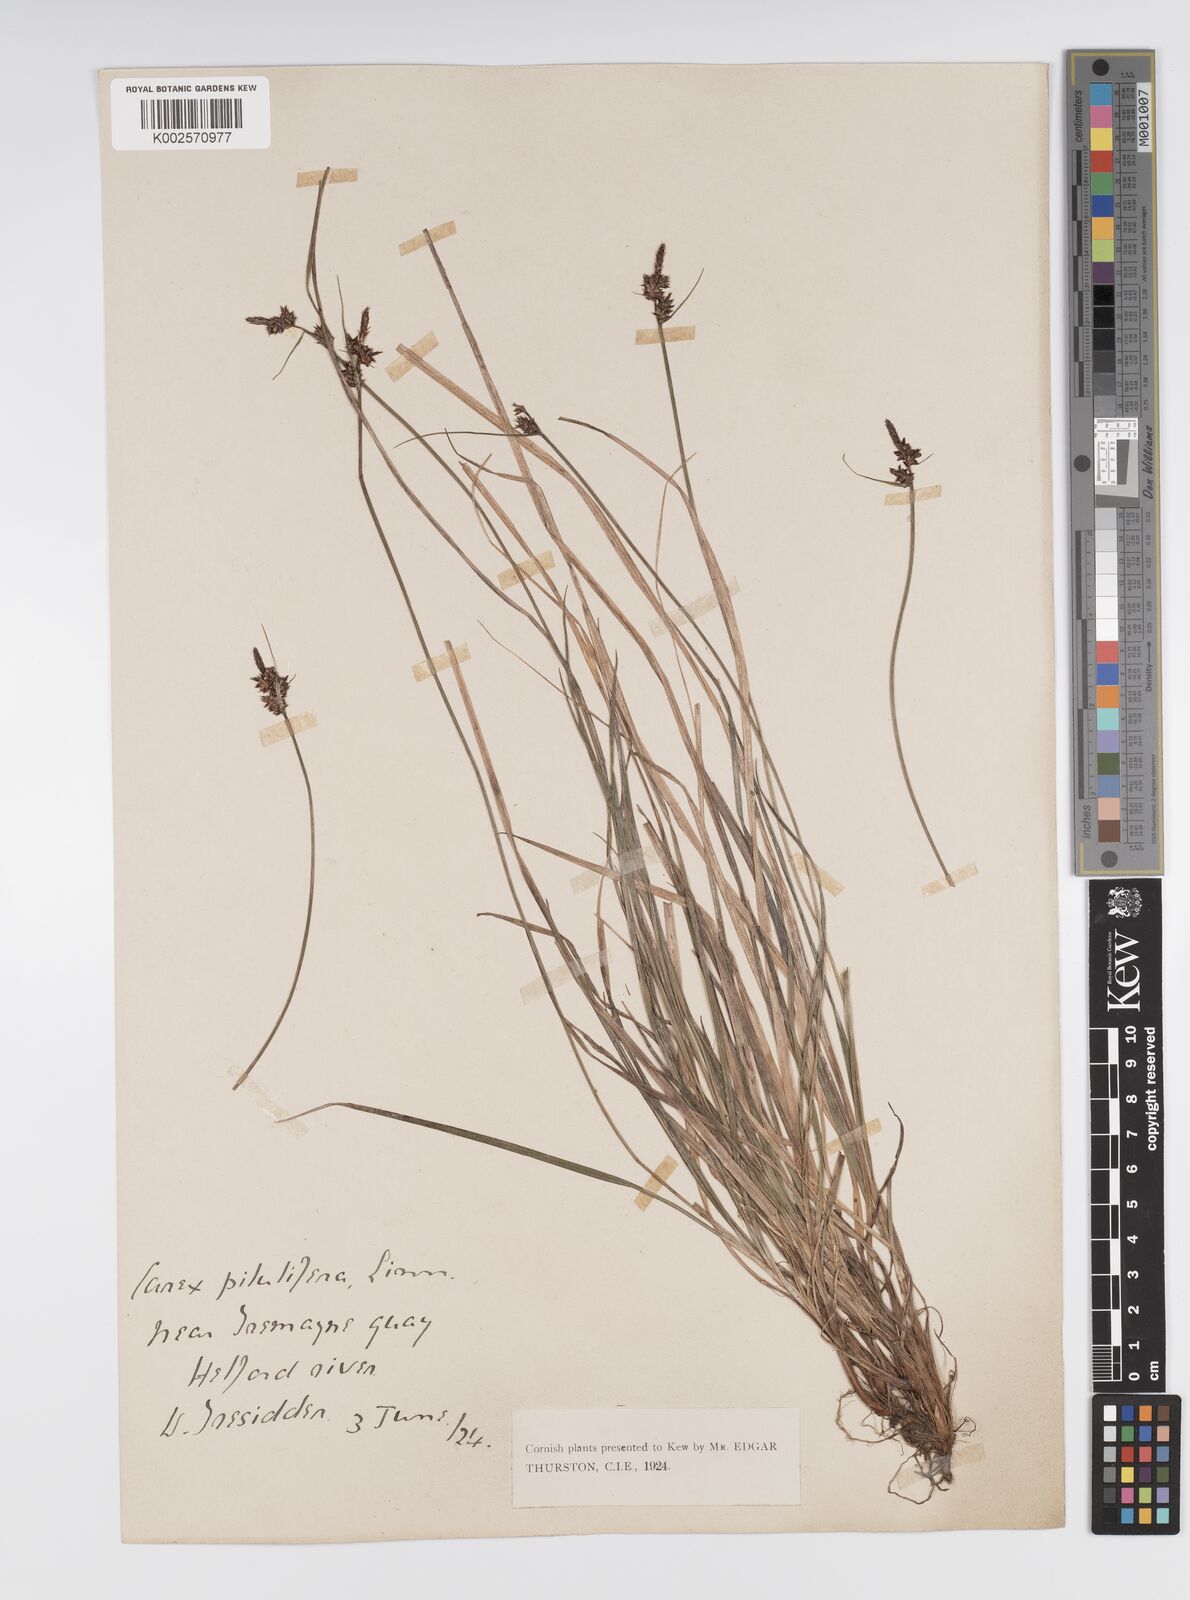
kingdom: Plantae
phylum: Tracheophyta
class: Liliopsida
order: Poales
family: Cyperaceae
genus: Carex
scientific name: Carex pilulifera
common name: Pill sedge
